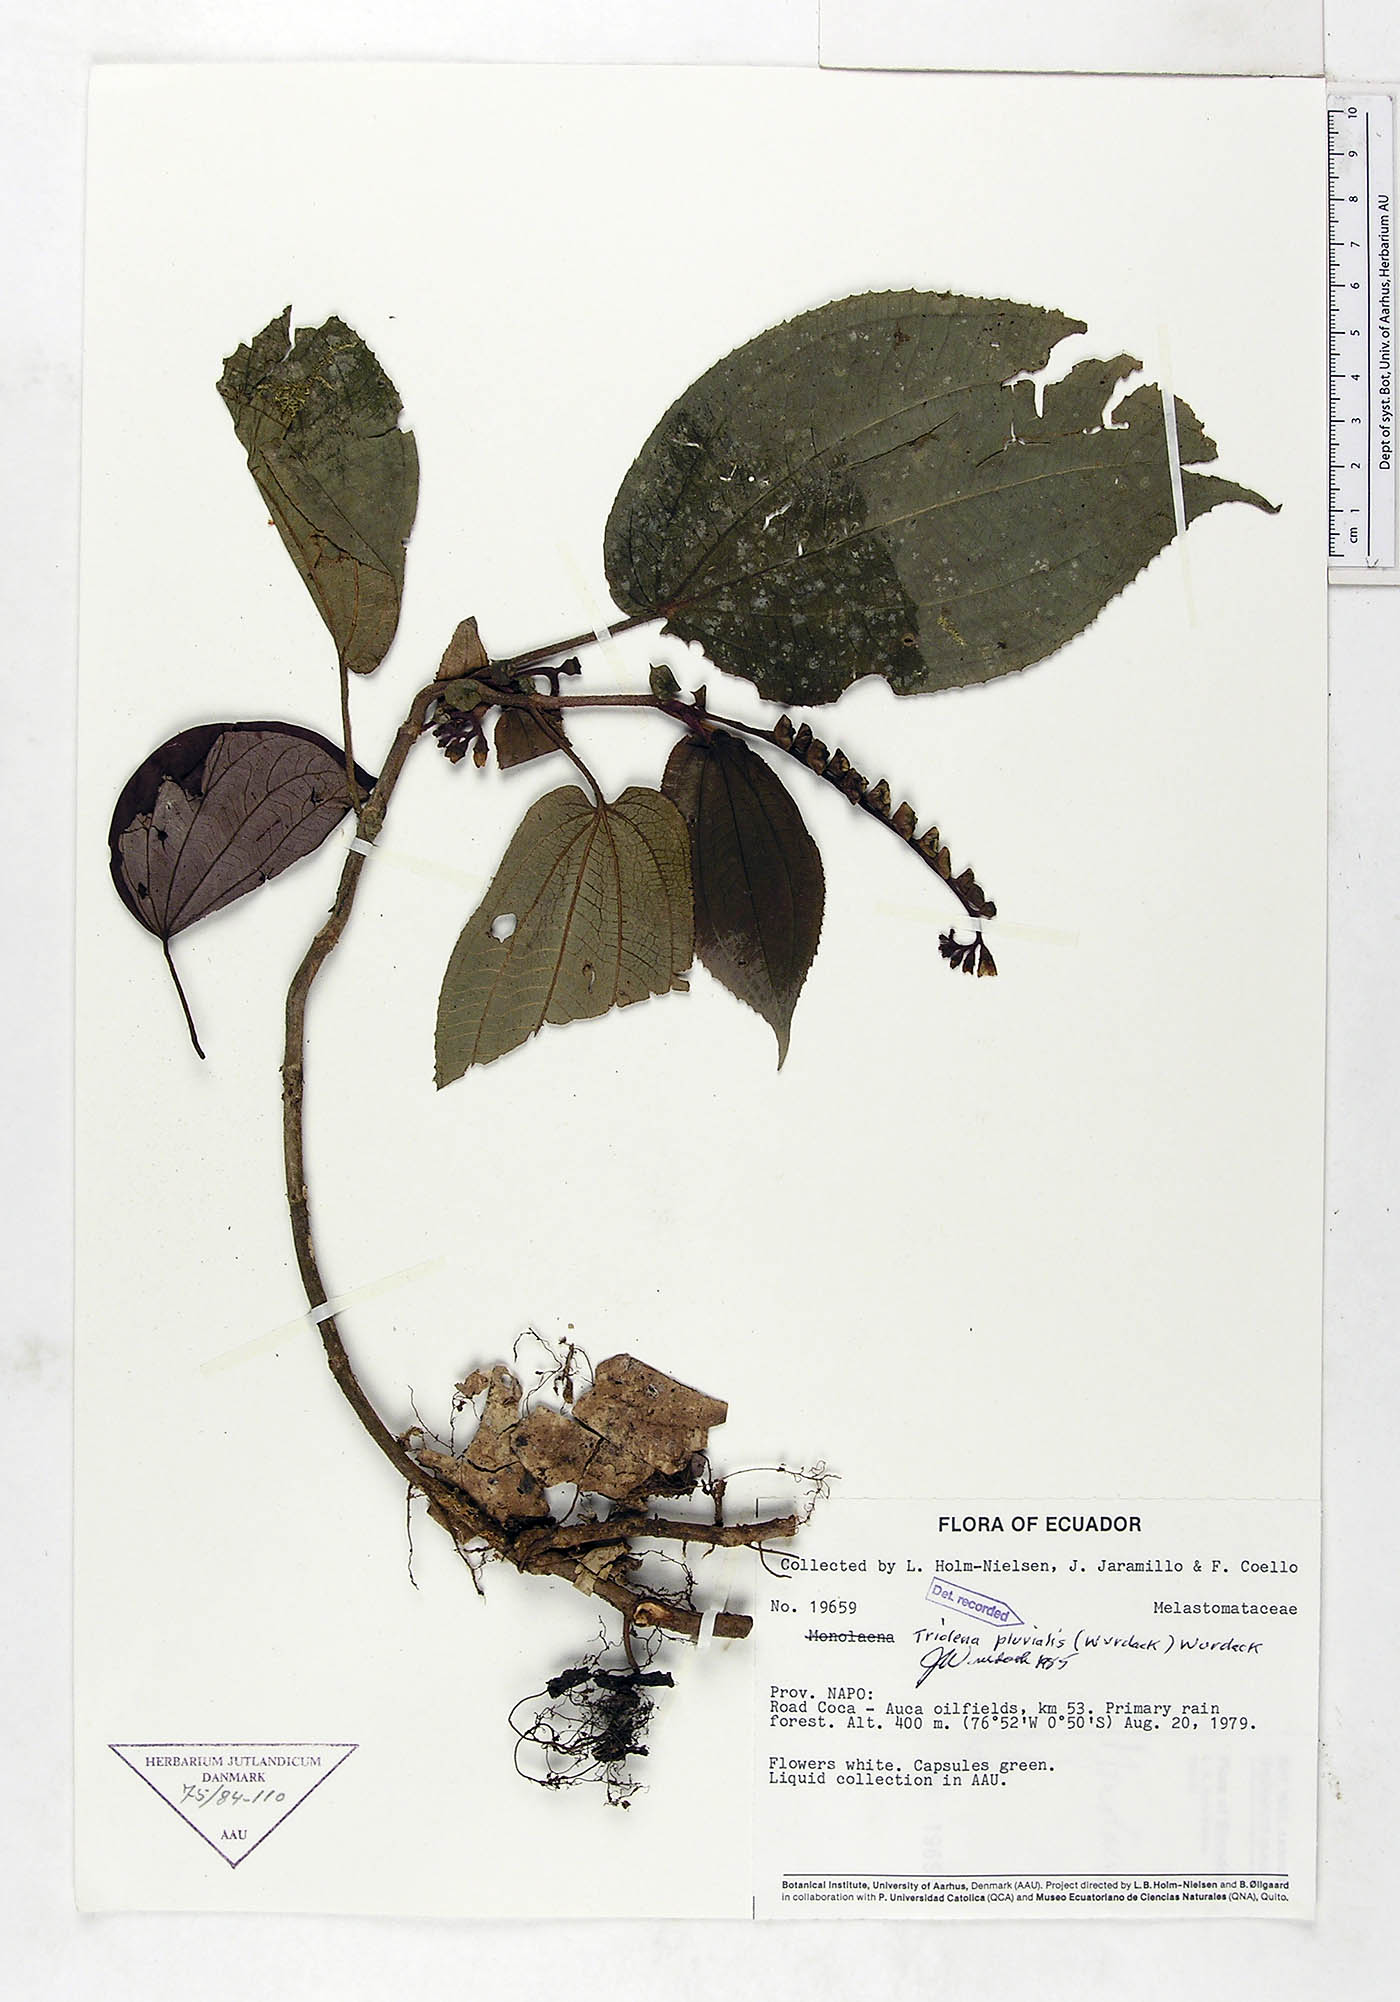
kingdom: Plantae
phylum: Tracheophyta
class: Magnoliopsida
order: Myrtales
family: Melastomataceae
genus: Triolena
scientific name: Triolena pluvialis
